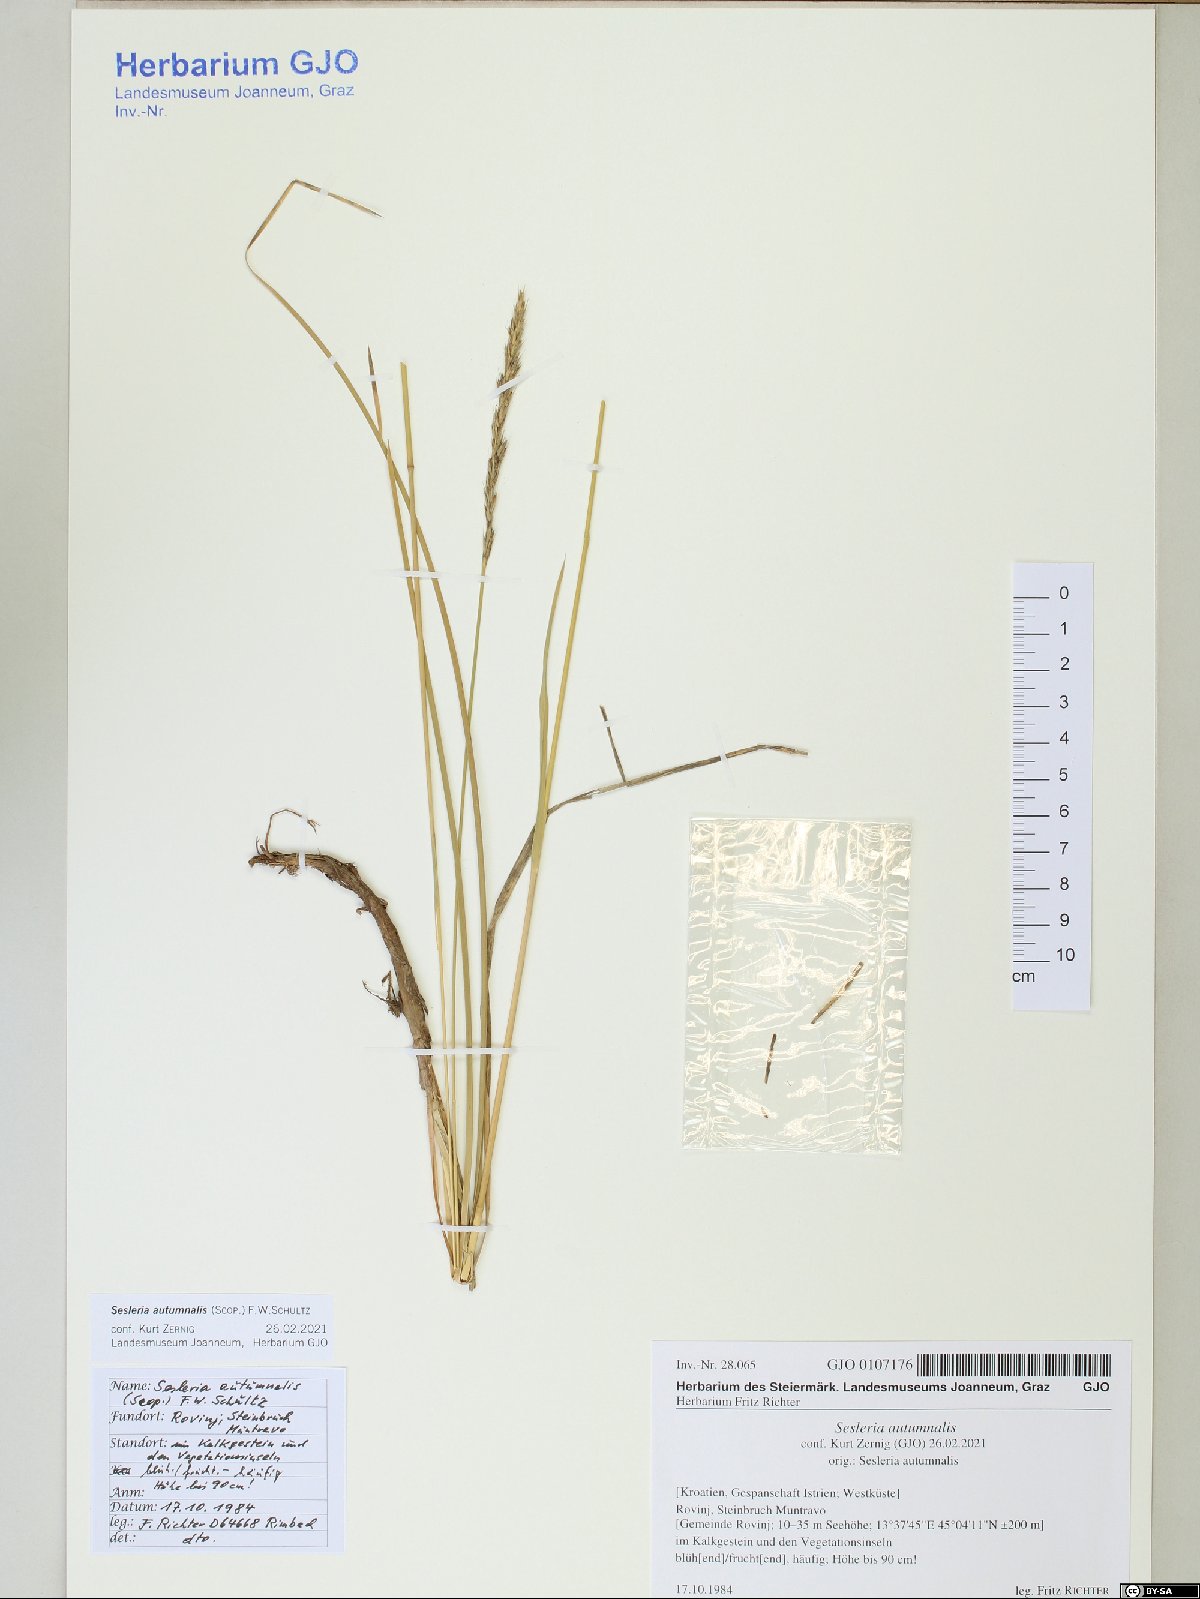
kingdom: Plantae
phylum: Tracheophyta
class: Liliopsida
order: Poales
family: Poaceae
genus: Sesleria
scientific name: Sesleria autumnalis
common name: Autumn moor grass
